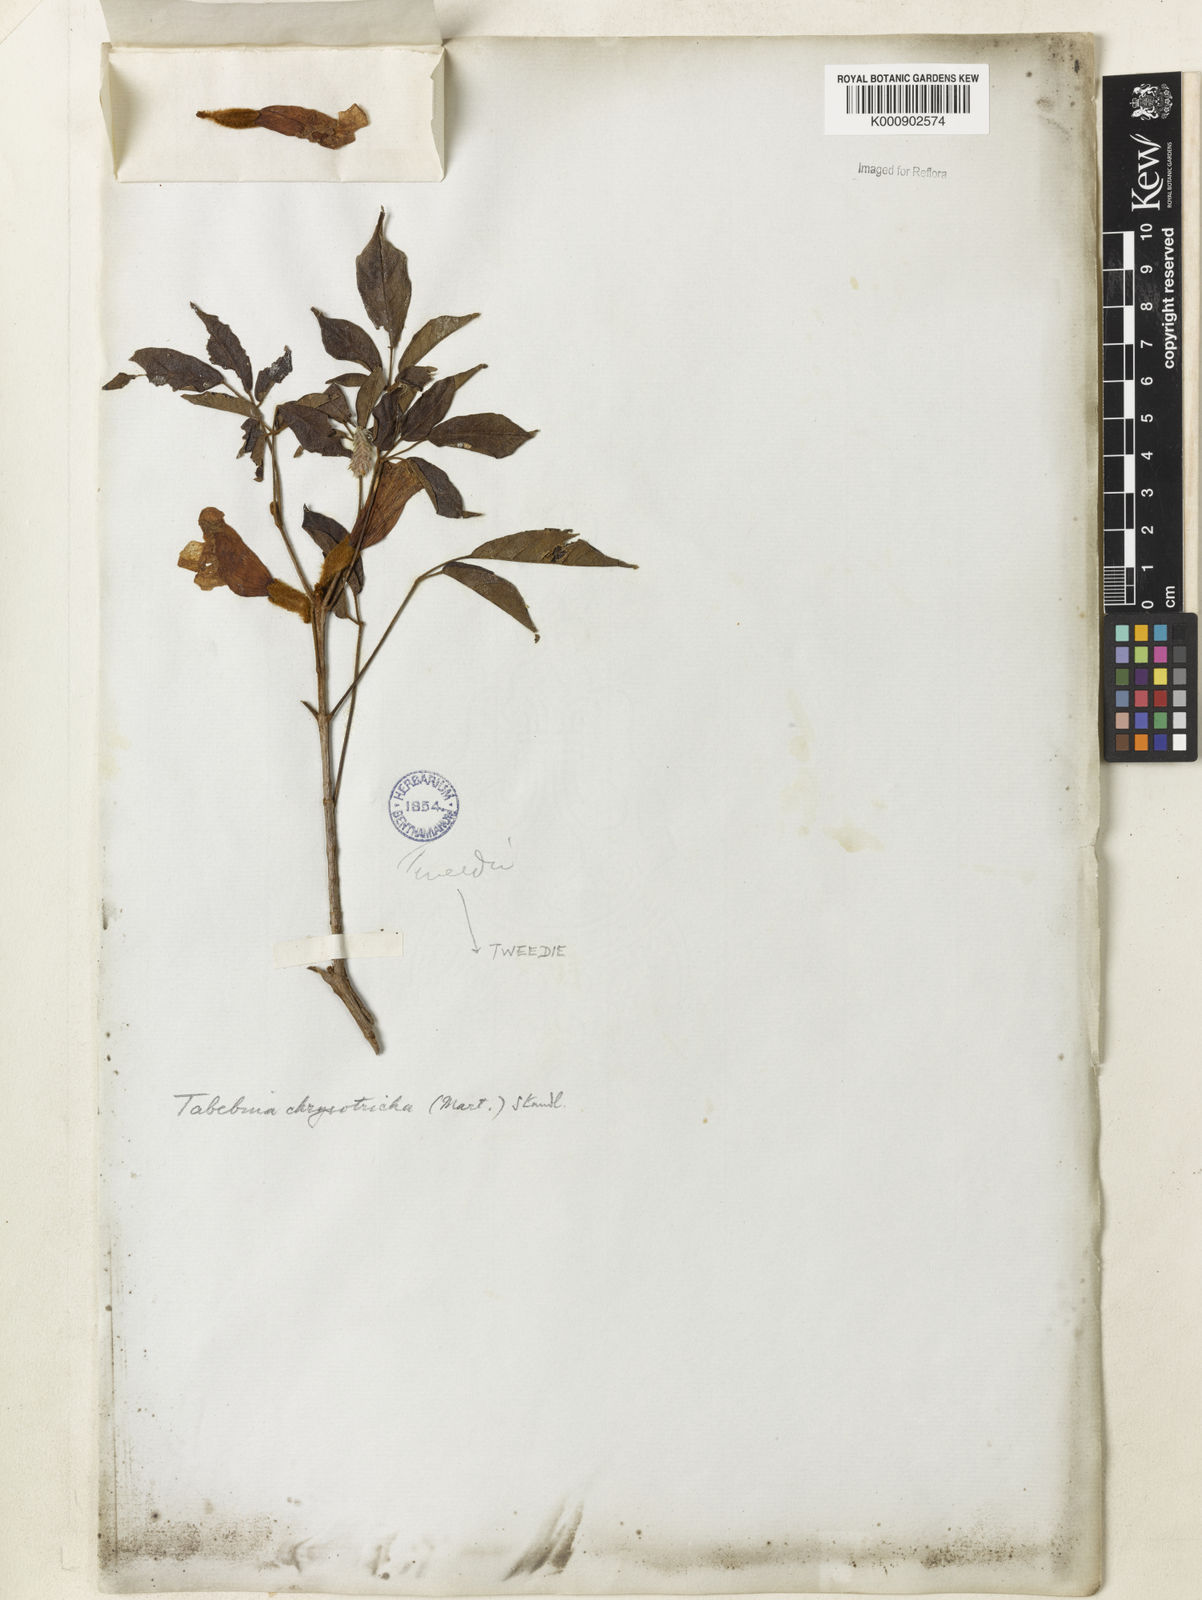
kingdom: Plantae
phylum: Tracheophyta
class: Magnoliopsida
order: Lamiales
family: Bignoniaceae
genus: Handroanthus
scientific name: Handroanthus chrysotrichus
